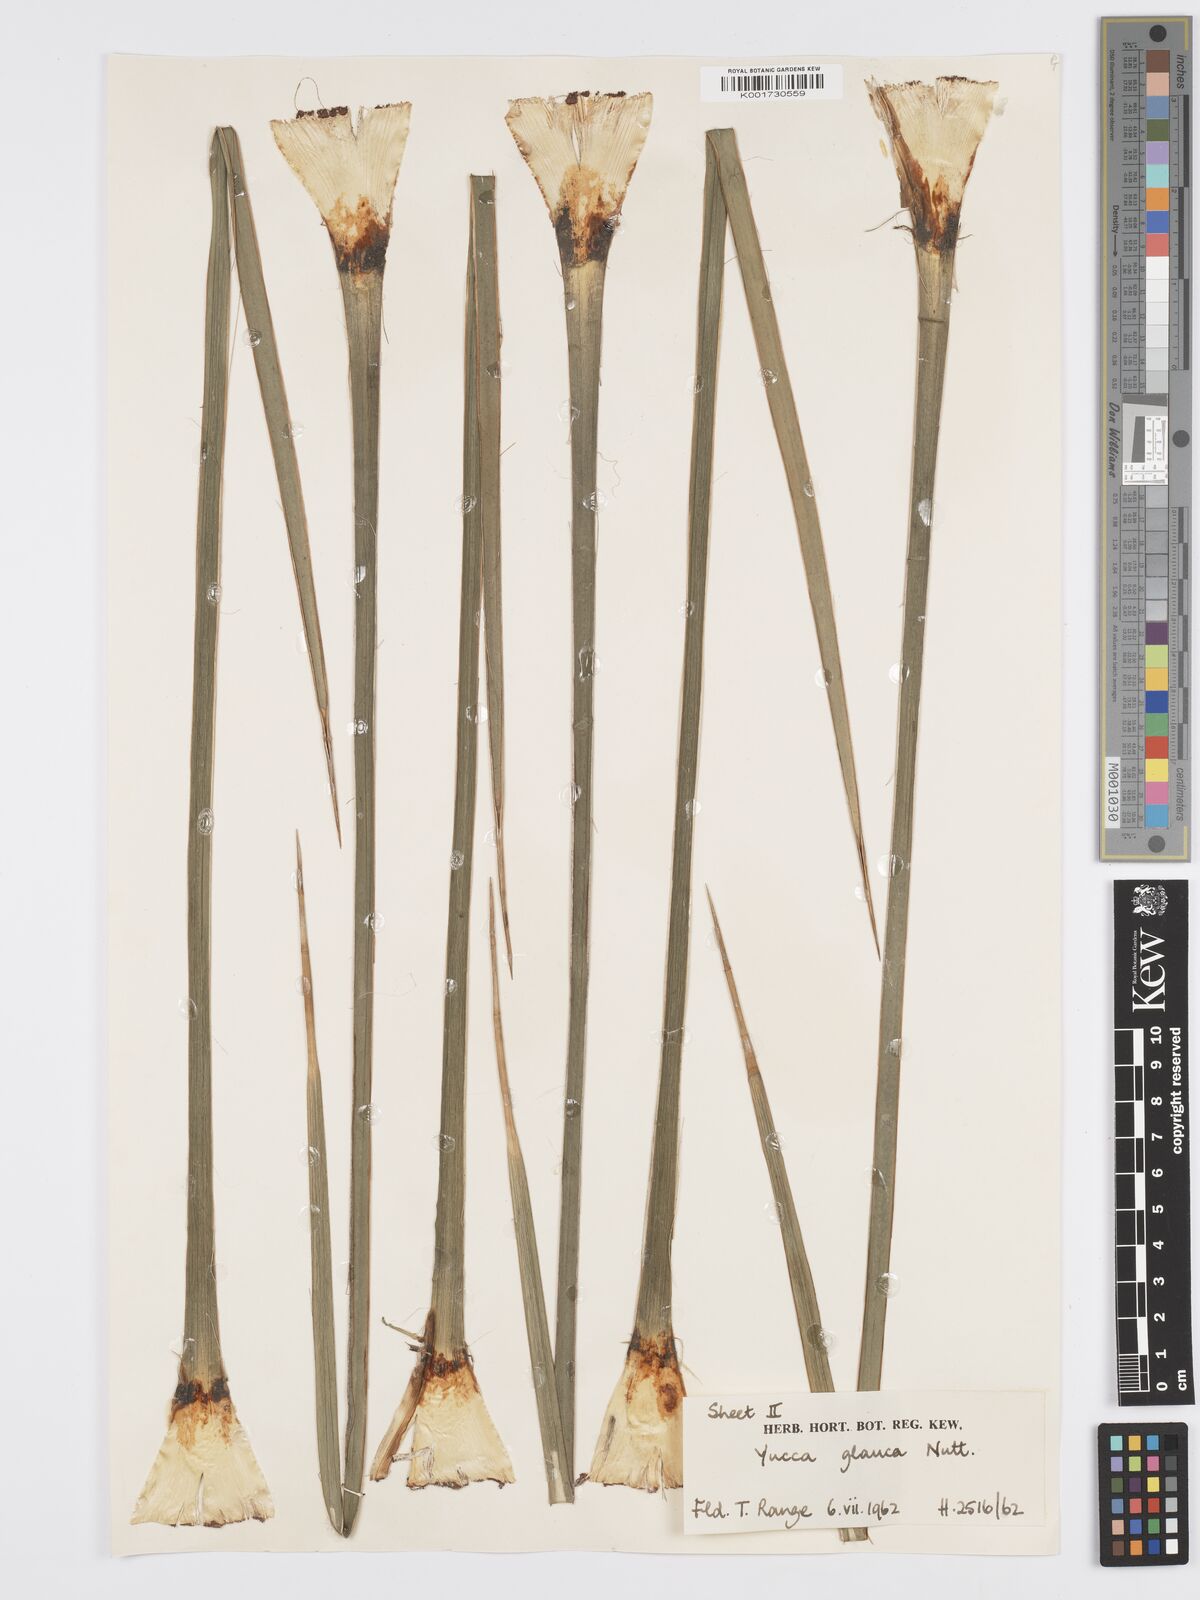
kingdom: Plantae
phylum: Tracheophyta
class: Liliopsida
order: Asparagales
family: Asparagaceae
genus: Yucca
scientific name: Yucca glauca
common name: Great plains yucca
